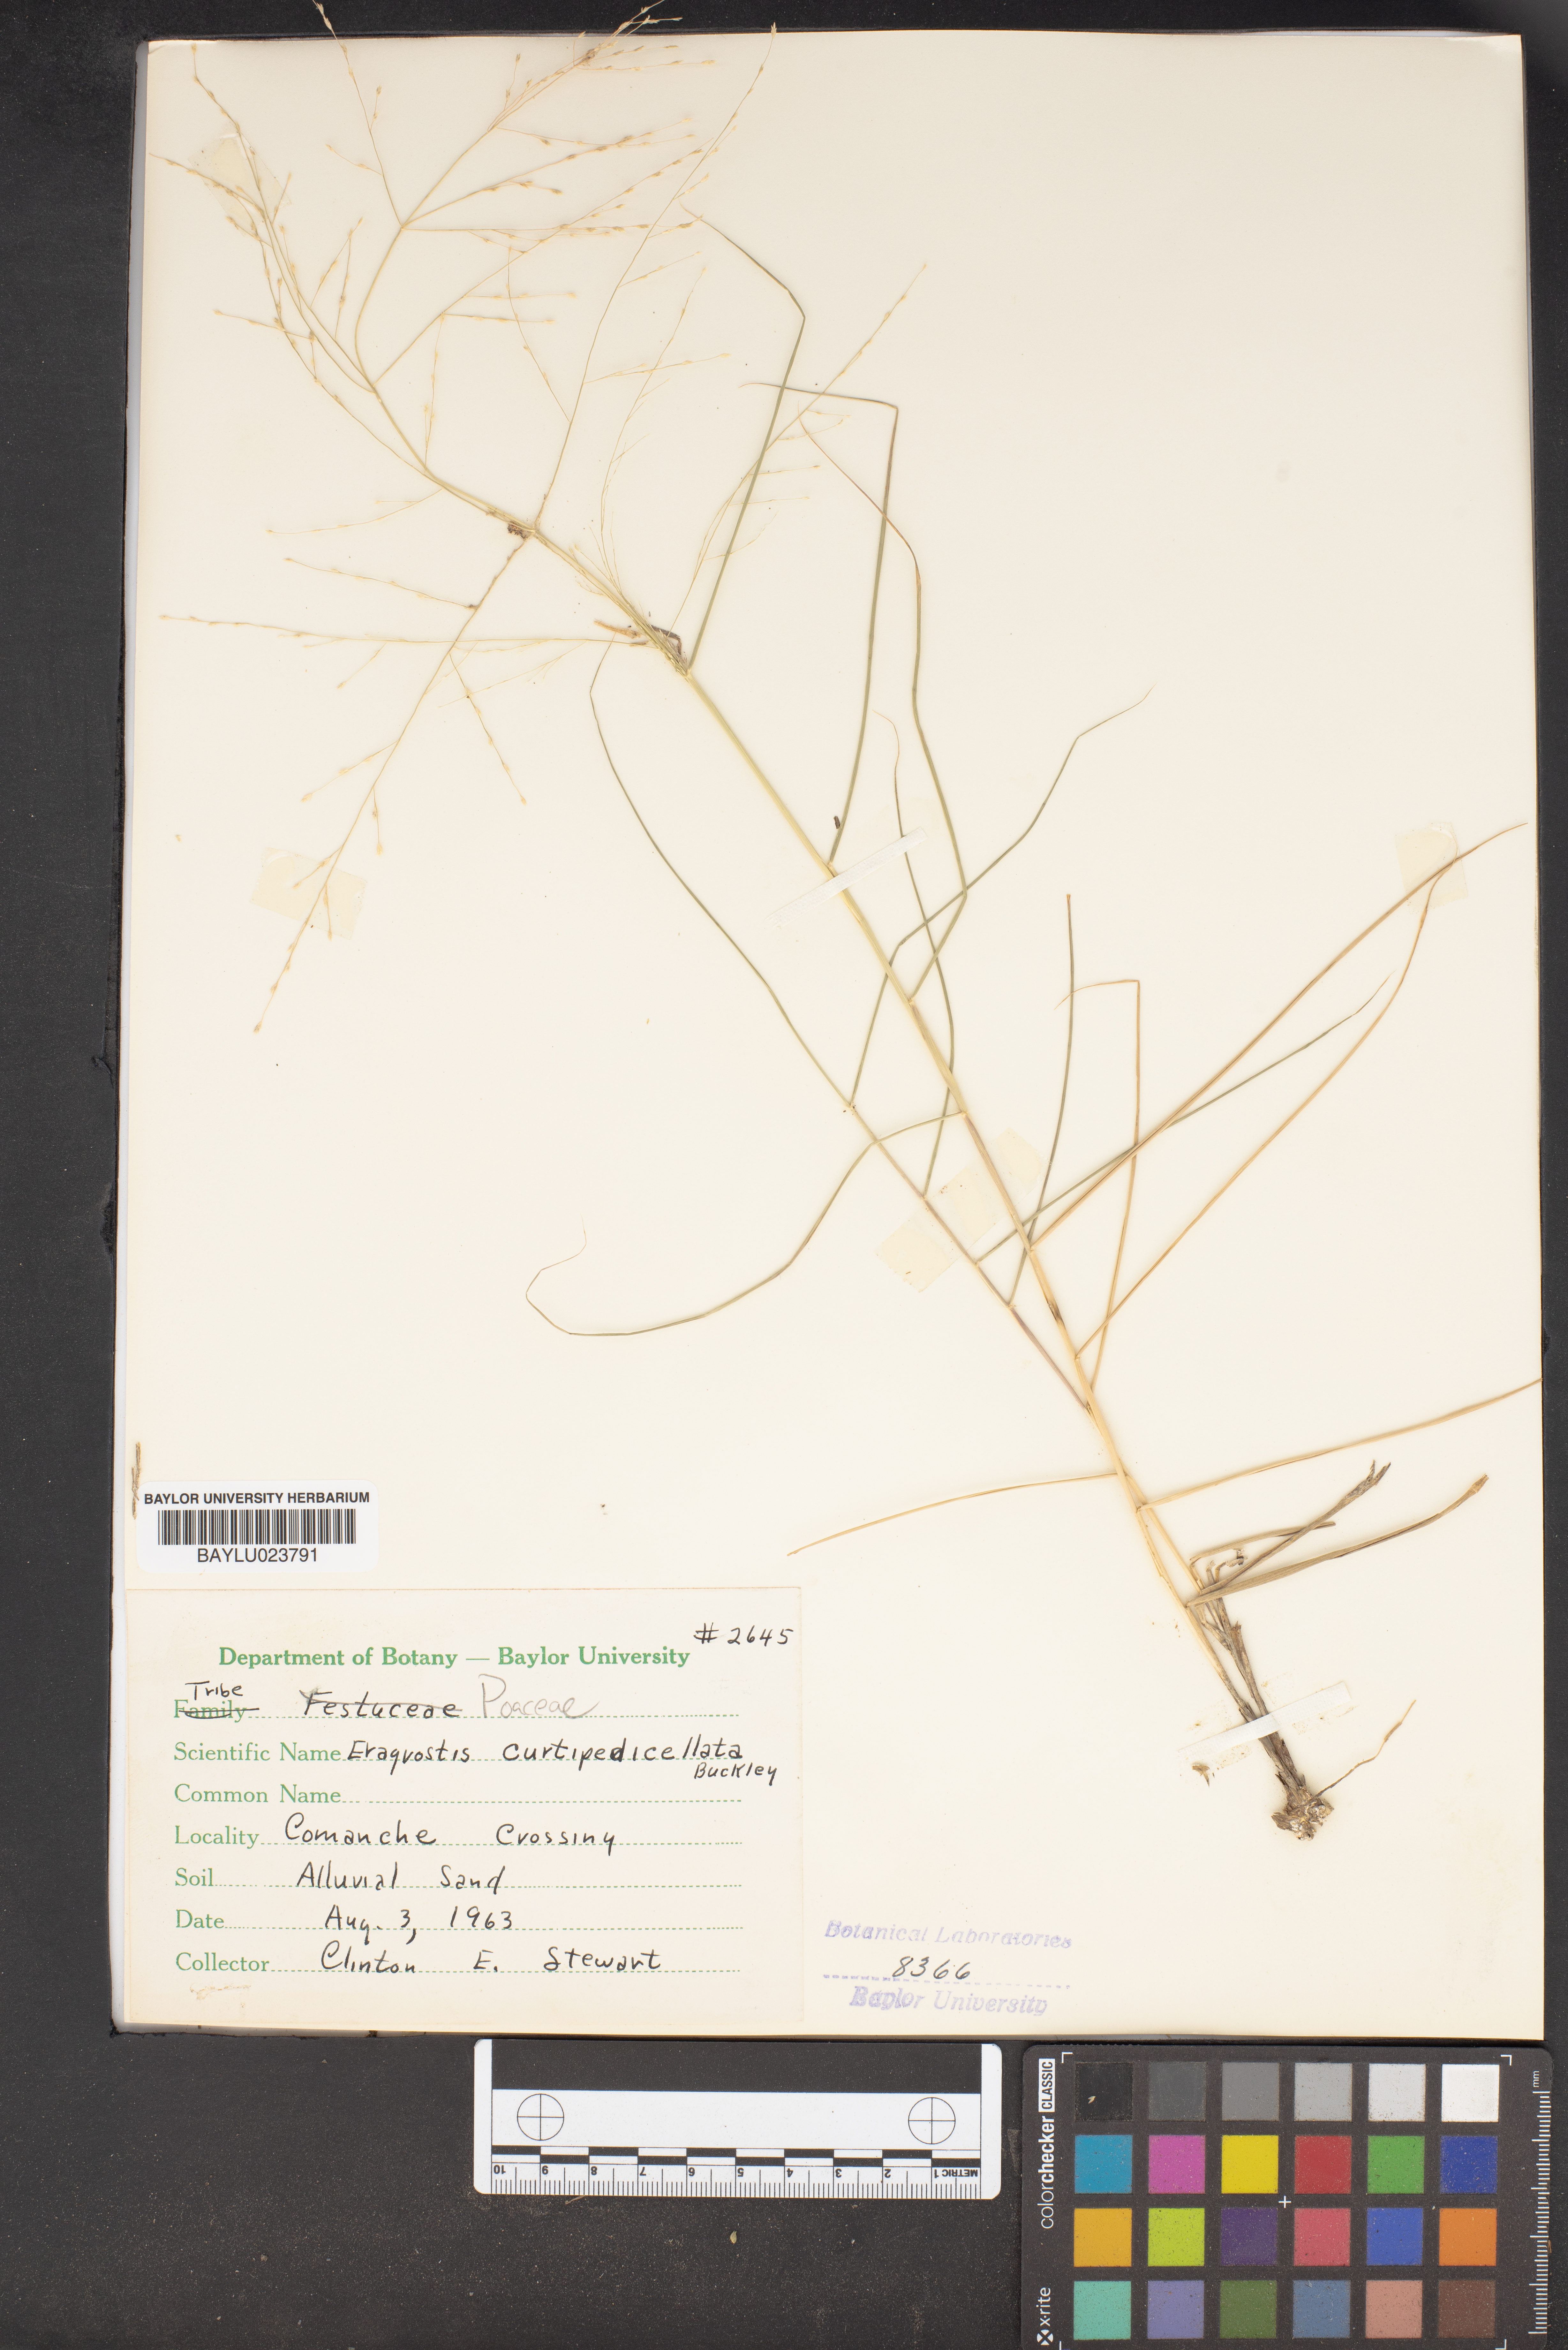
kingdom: Plantae
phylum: Tracheophyta
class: Liliopsida
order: Poales
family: Poaceae
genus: Eragrostis
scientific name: Eragrostis curtipedicellata
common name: Gummy love grass
